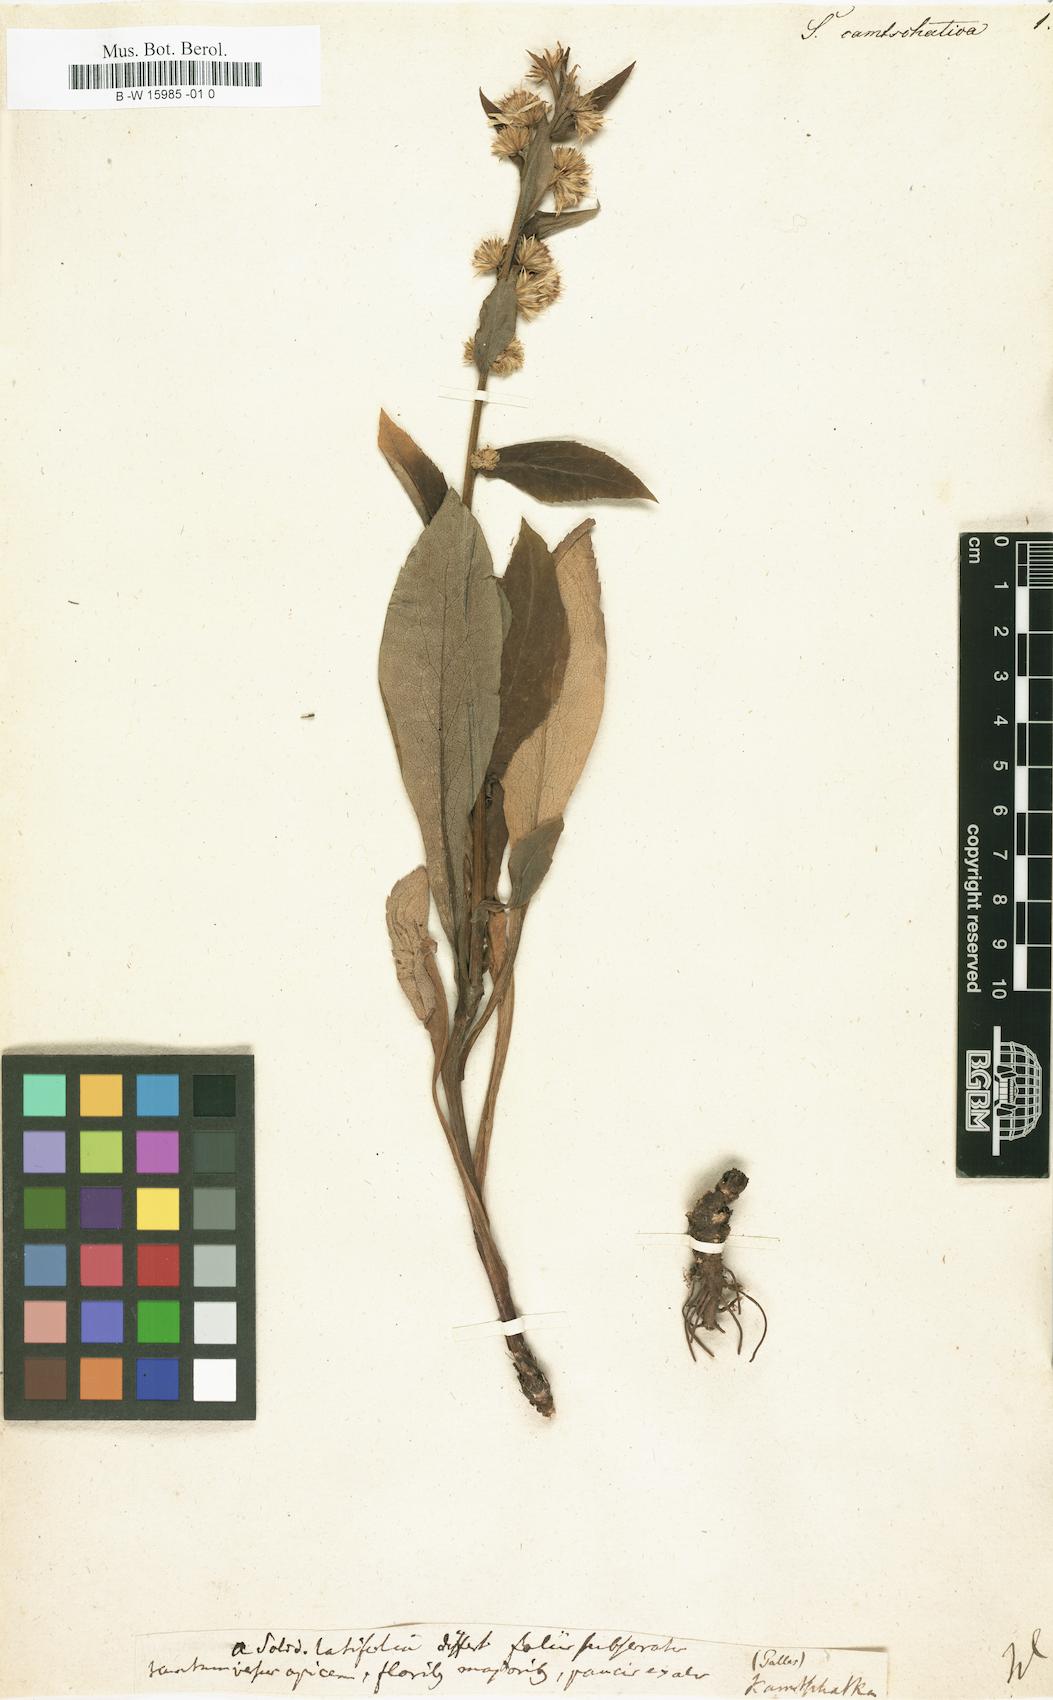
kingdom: Plantae
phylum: Tracheophyta
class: Magnoliopsida
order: Asterales
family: Asteraceae
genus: Solidago
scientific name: Solidago
